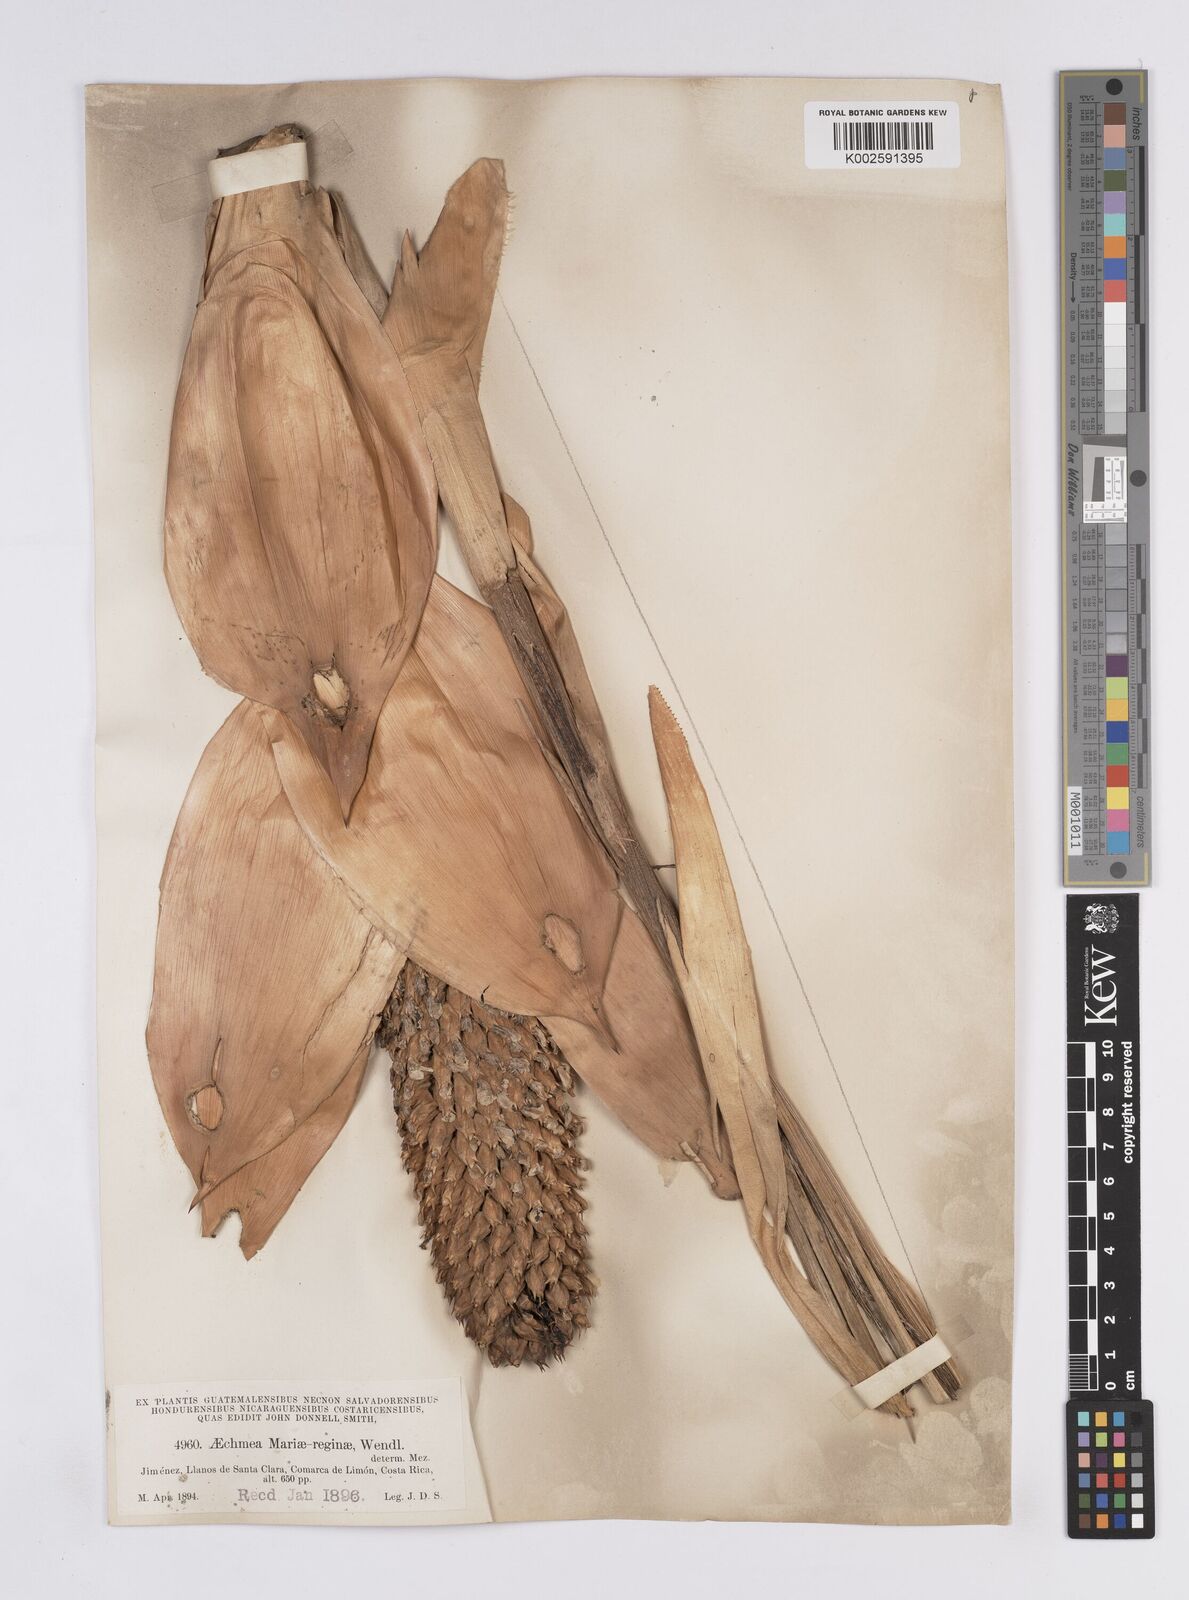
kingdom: Plantae
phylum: Tracheophyta
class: Liliopsida
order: Poales
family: Bromeliaceae
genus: Aechmea
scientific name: Aechmea mariae-reginae
